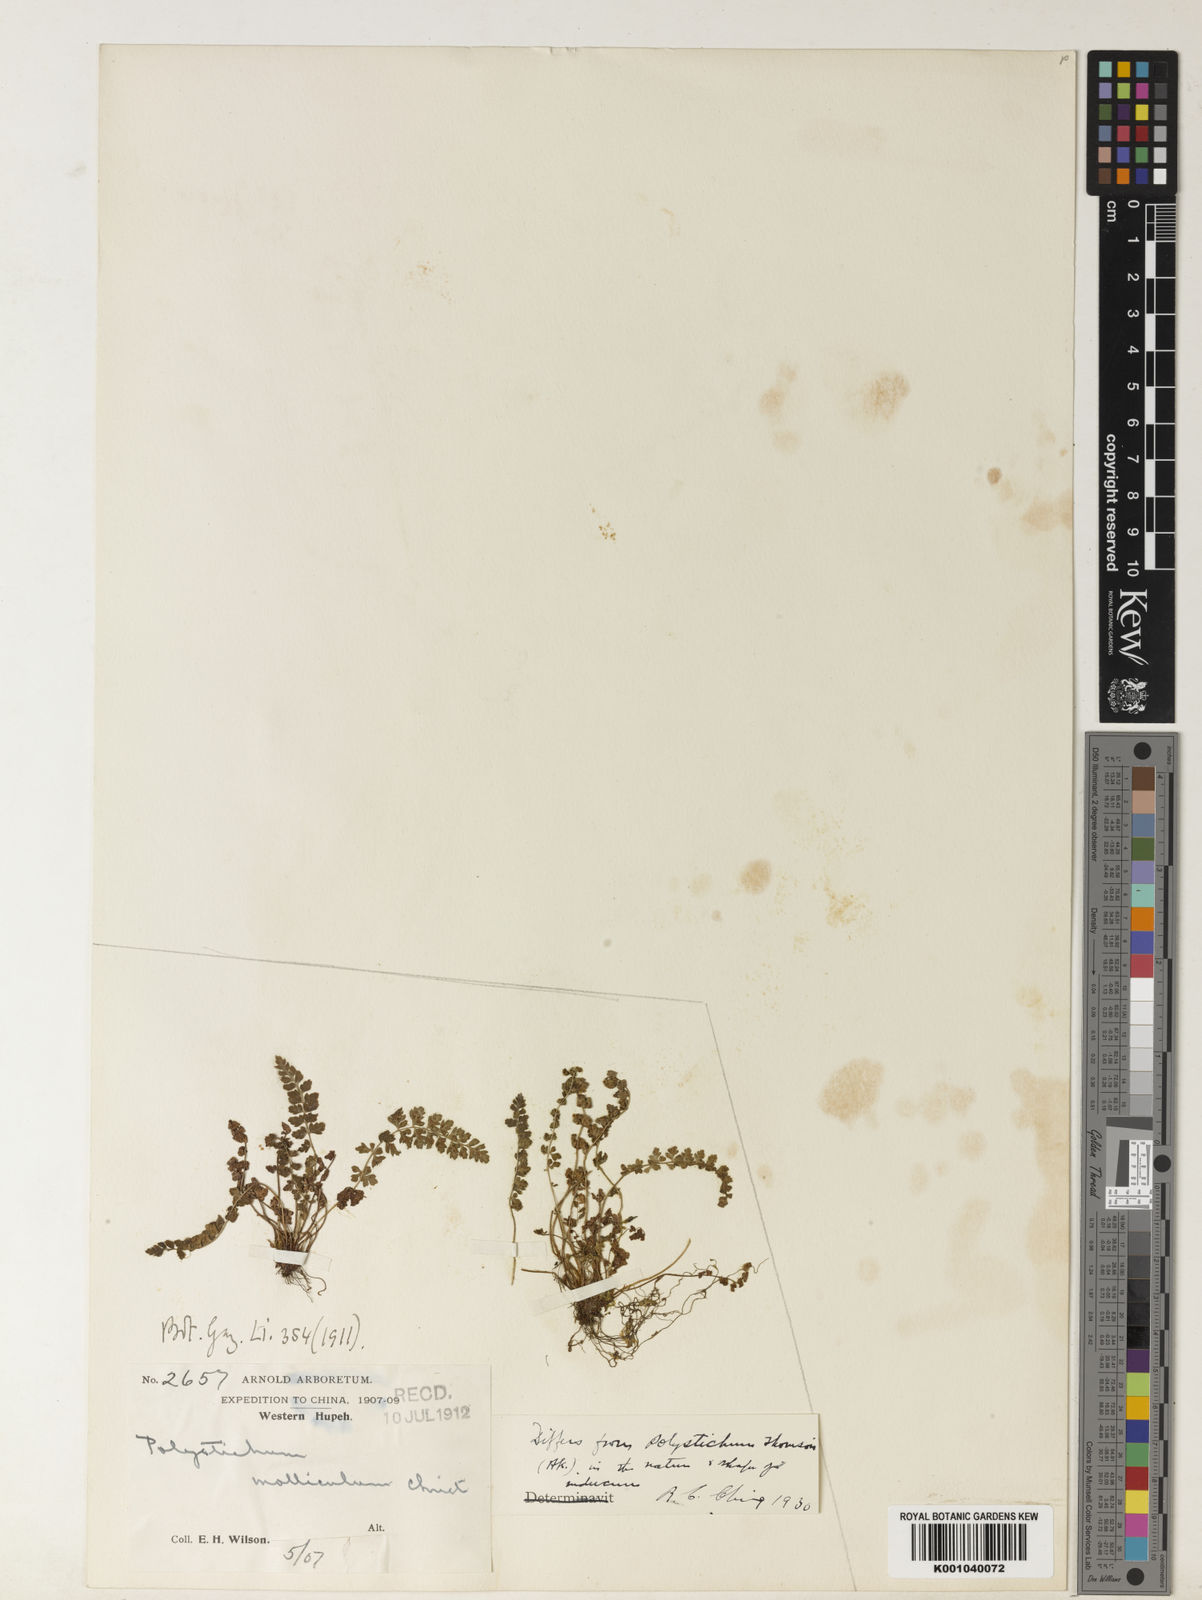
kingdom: Plantae
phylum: Tracheophyta
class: Polypodiopsida
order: Polypodiales
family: Dryopteridaceae
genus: Polystichum
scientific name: Polystichum thomsonii
